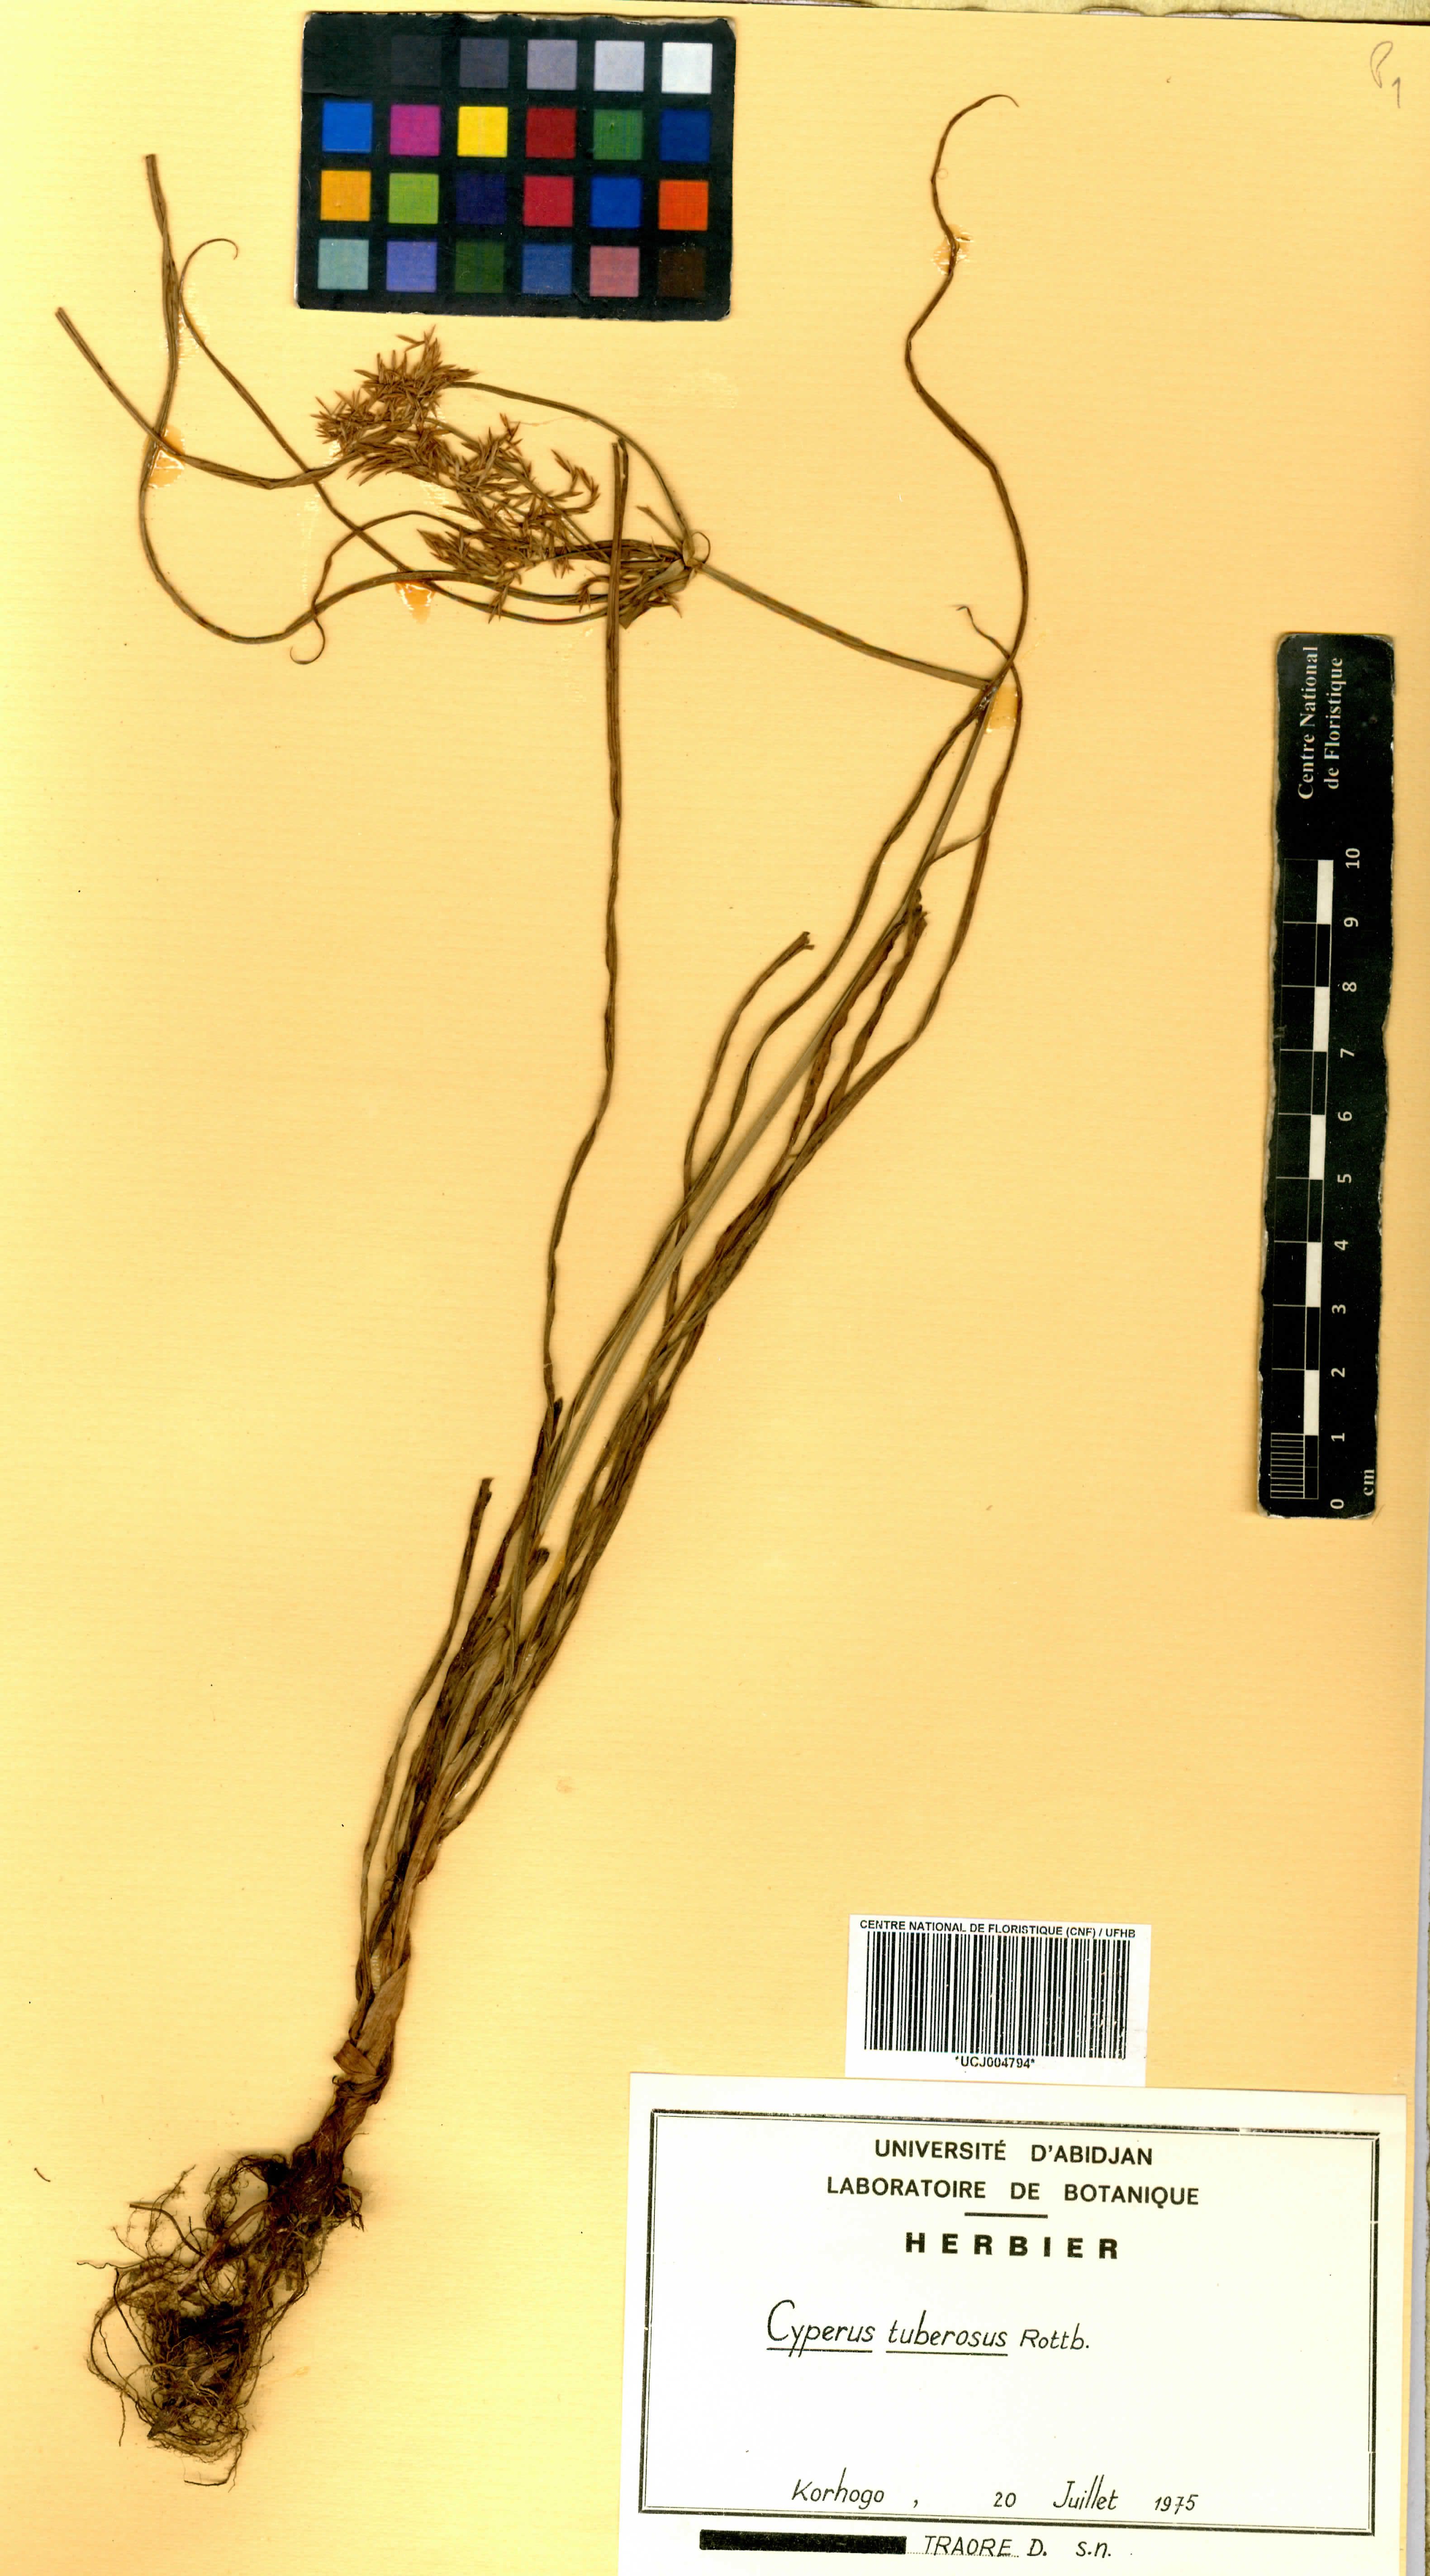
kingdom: Plantae
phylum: Tracheophyta
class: Liliopsida
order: Poales
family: Cyperaceae
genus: Cyperus
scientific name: Cyperus tuberosus
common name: Nut grass
